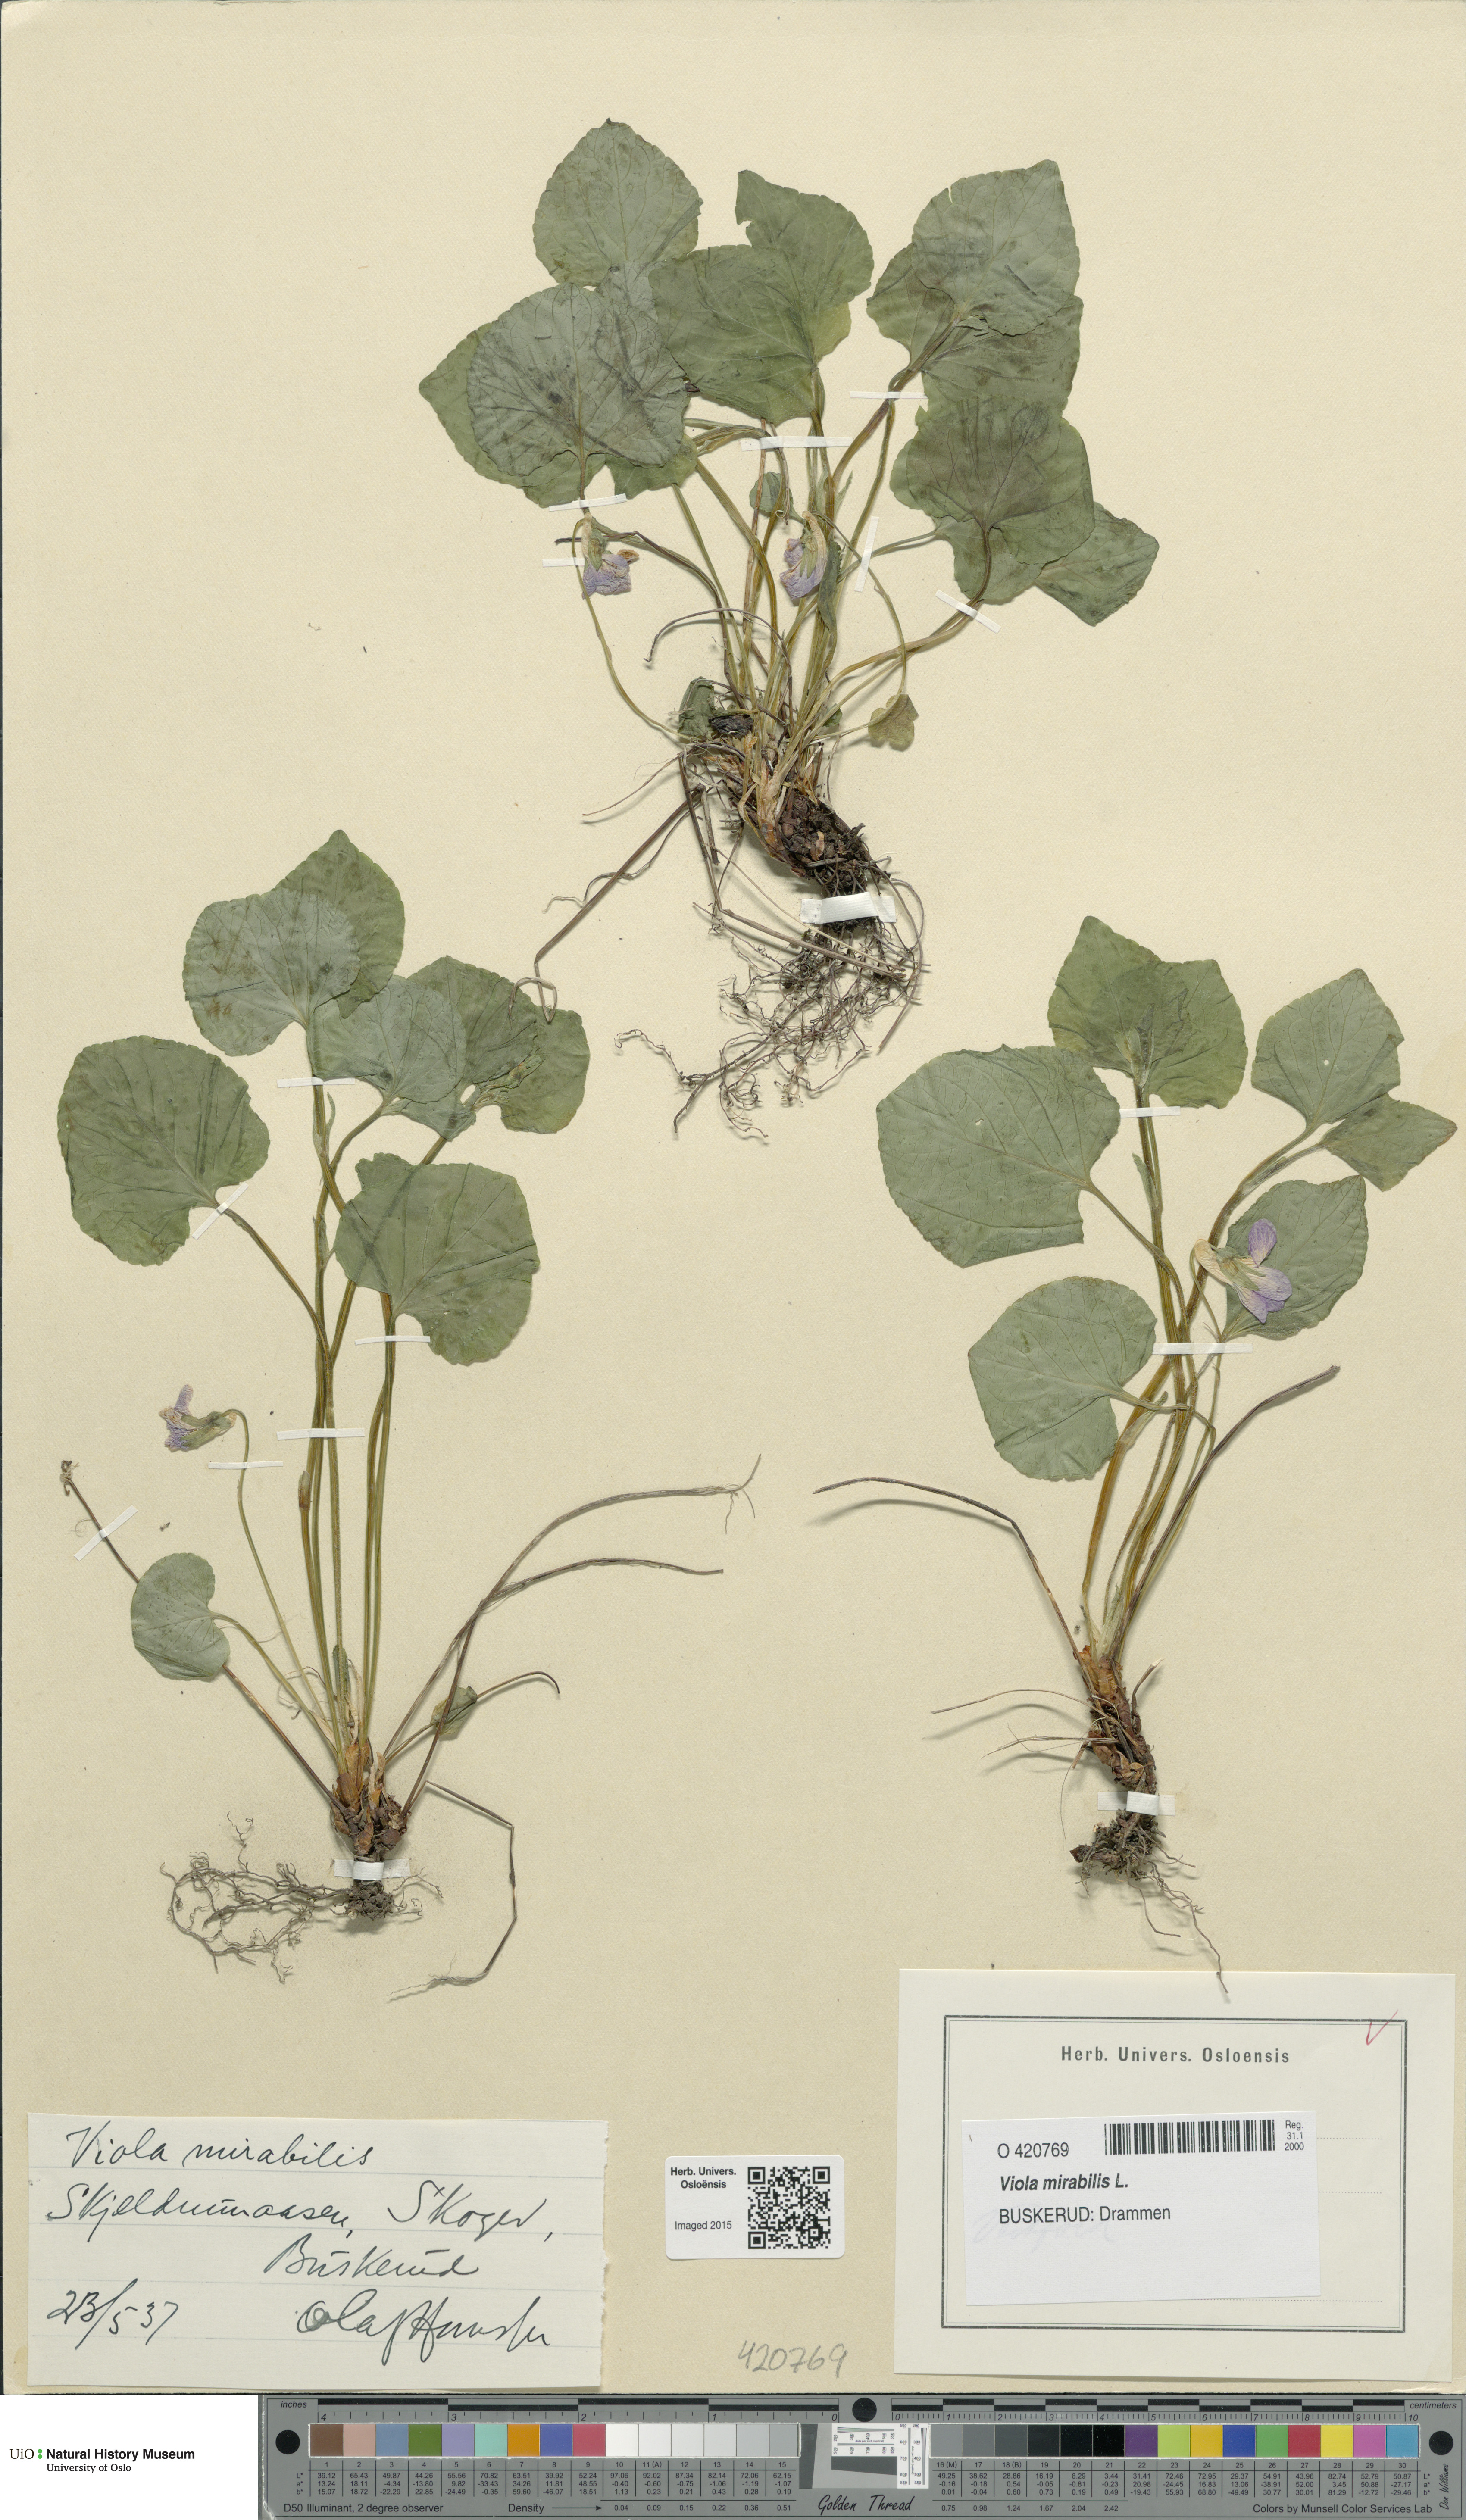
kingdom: Plantae
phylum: Tracheophyta
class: Magnoliopsida
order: Malpighiales
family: Violaceae
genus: Viola
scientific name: Viola mirabilis
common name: Wonder violet
